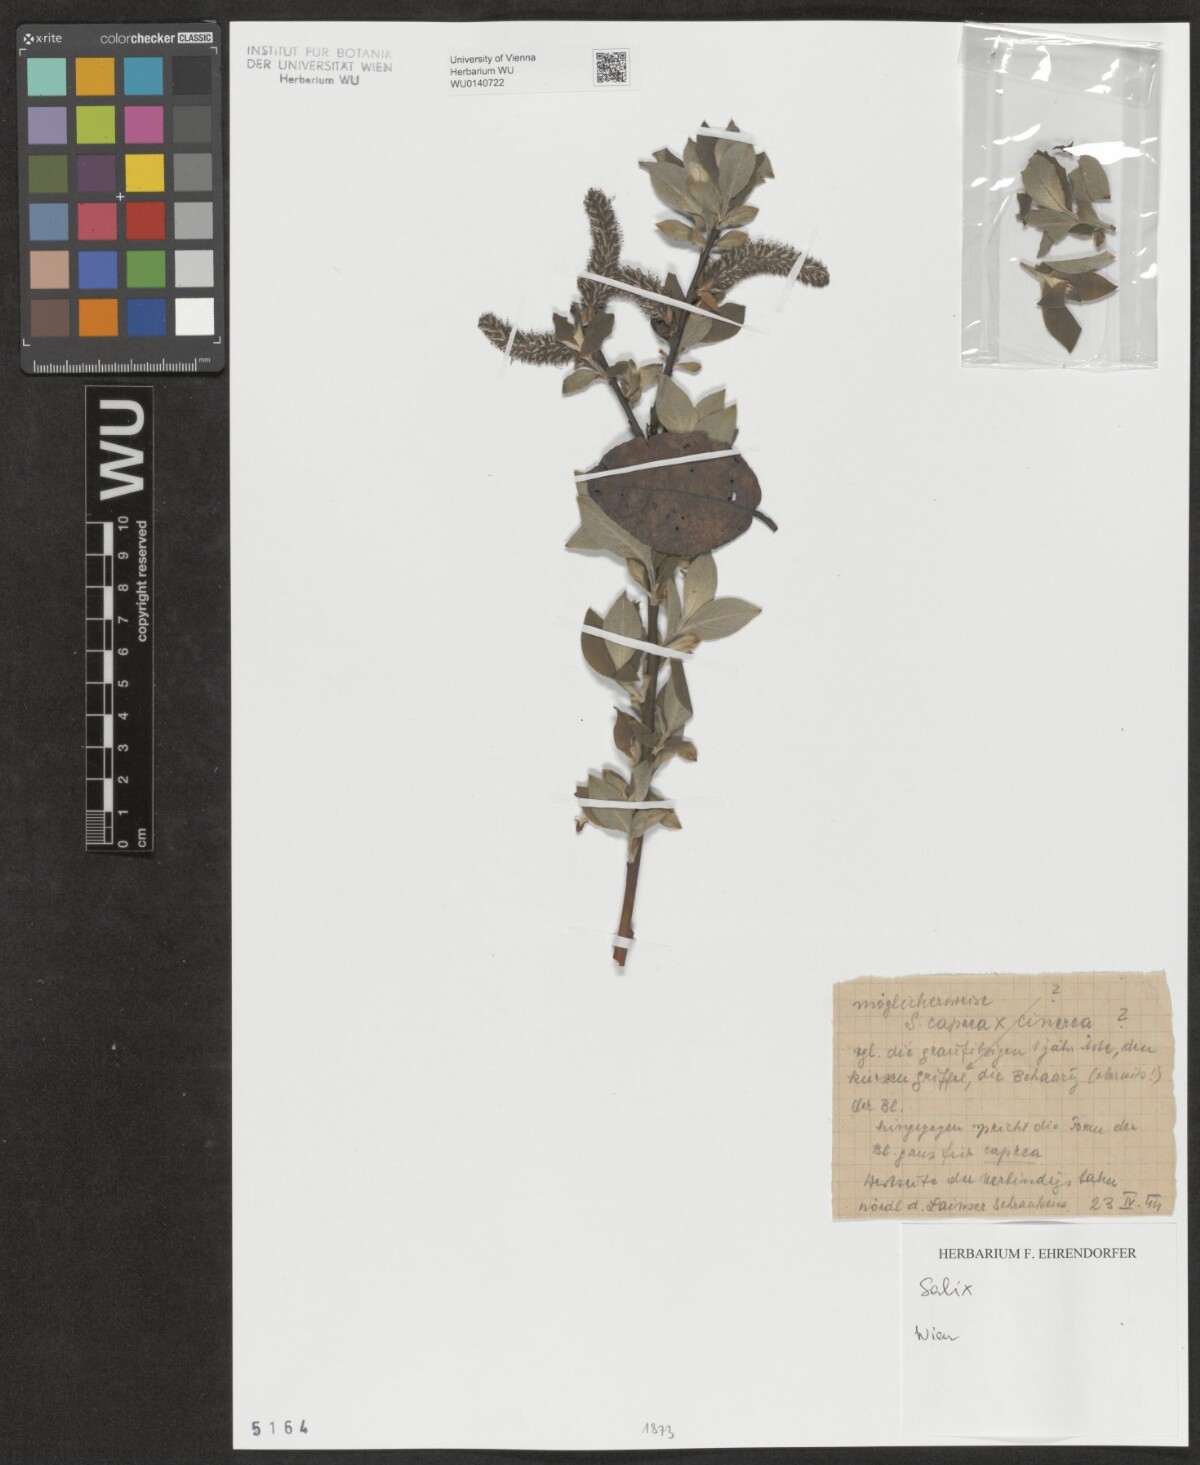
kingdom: Plantae
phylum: Tracheophyta
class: Magnoliopsida
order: Malpighiales
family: Salicaceae
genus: Salix
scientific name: Salix
